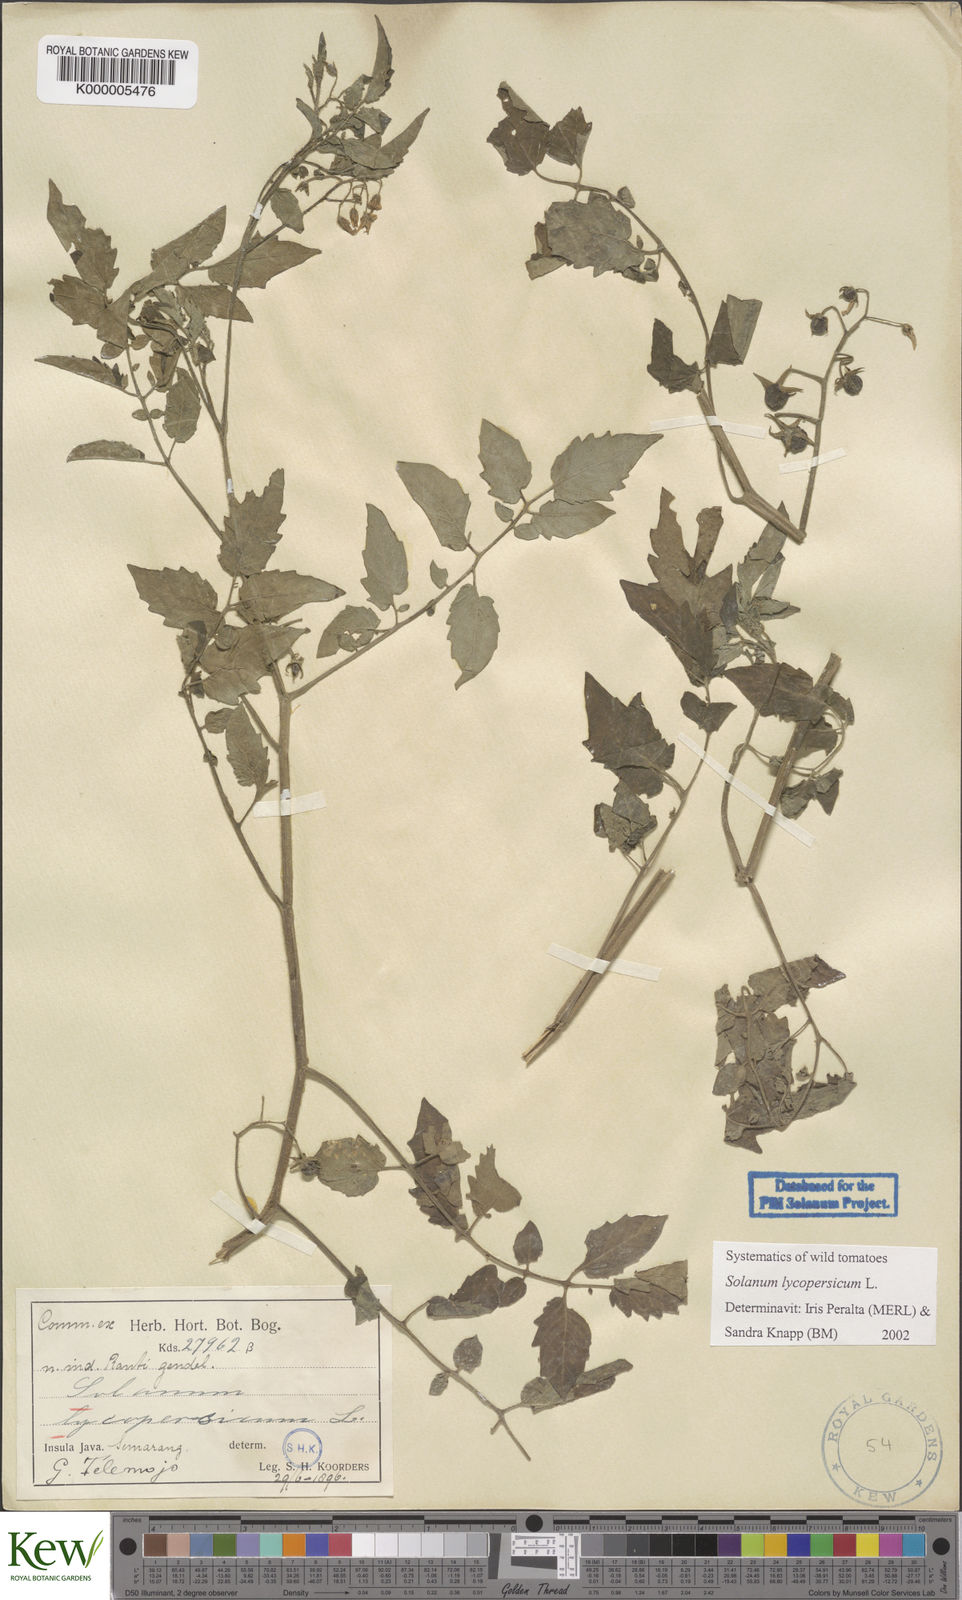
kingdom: Plantae
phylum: Tracheophyta
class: Magnoliopsida
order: Solanales
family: Solanaceae
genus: Solanum
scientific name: Solanum lycopersicum
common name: Garden tomato
